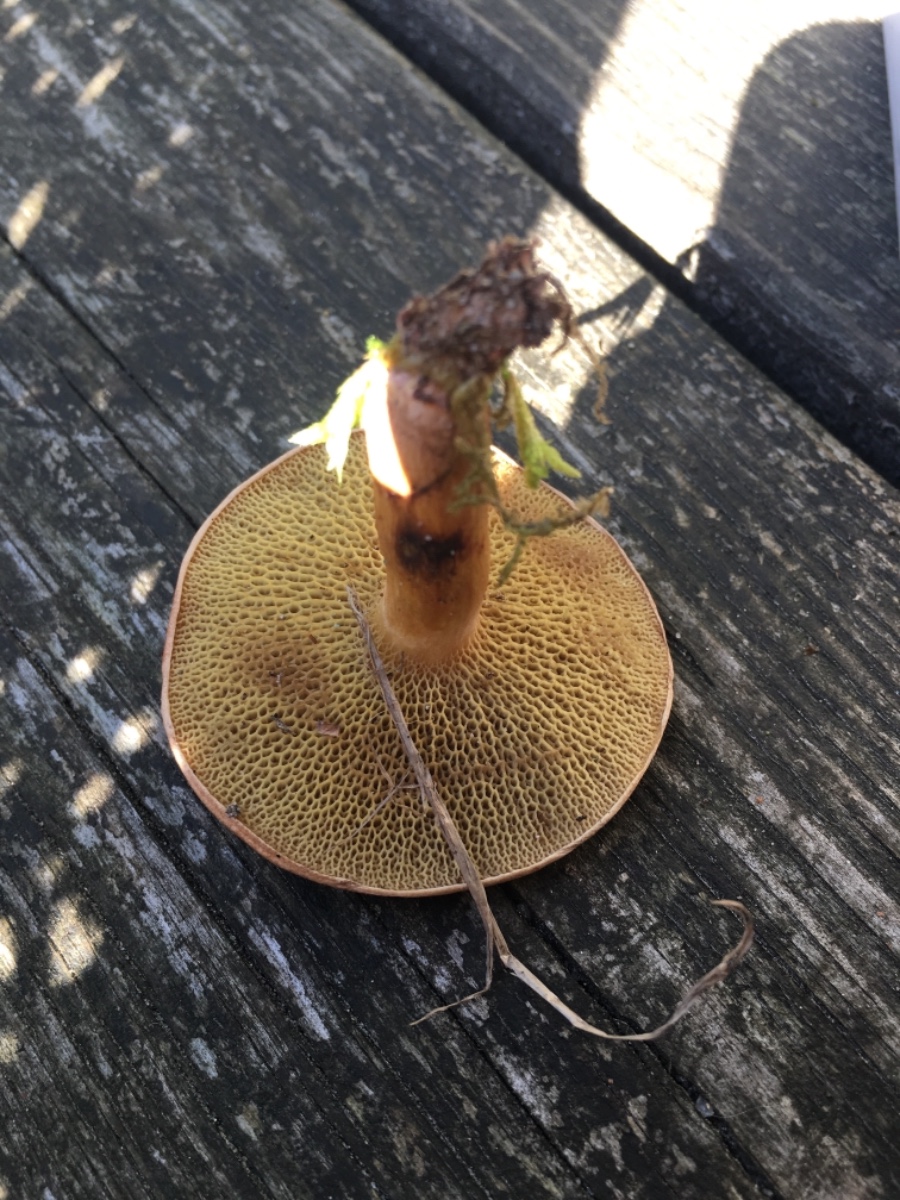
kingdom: Fungi
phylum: Basidiomycota
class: Agaricomycetes
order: Boletales
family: Suillaceae
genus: Suillus
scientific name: Suillus bovinus
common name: grovporet slimrørhat
